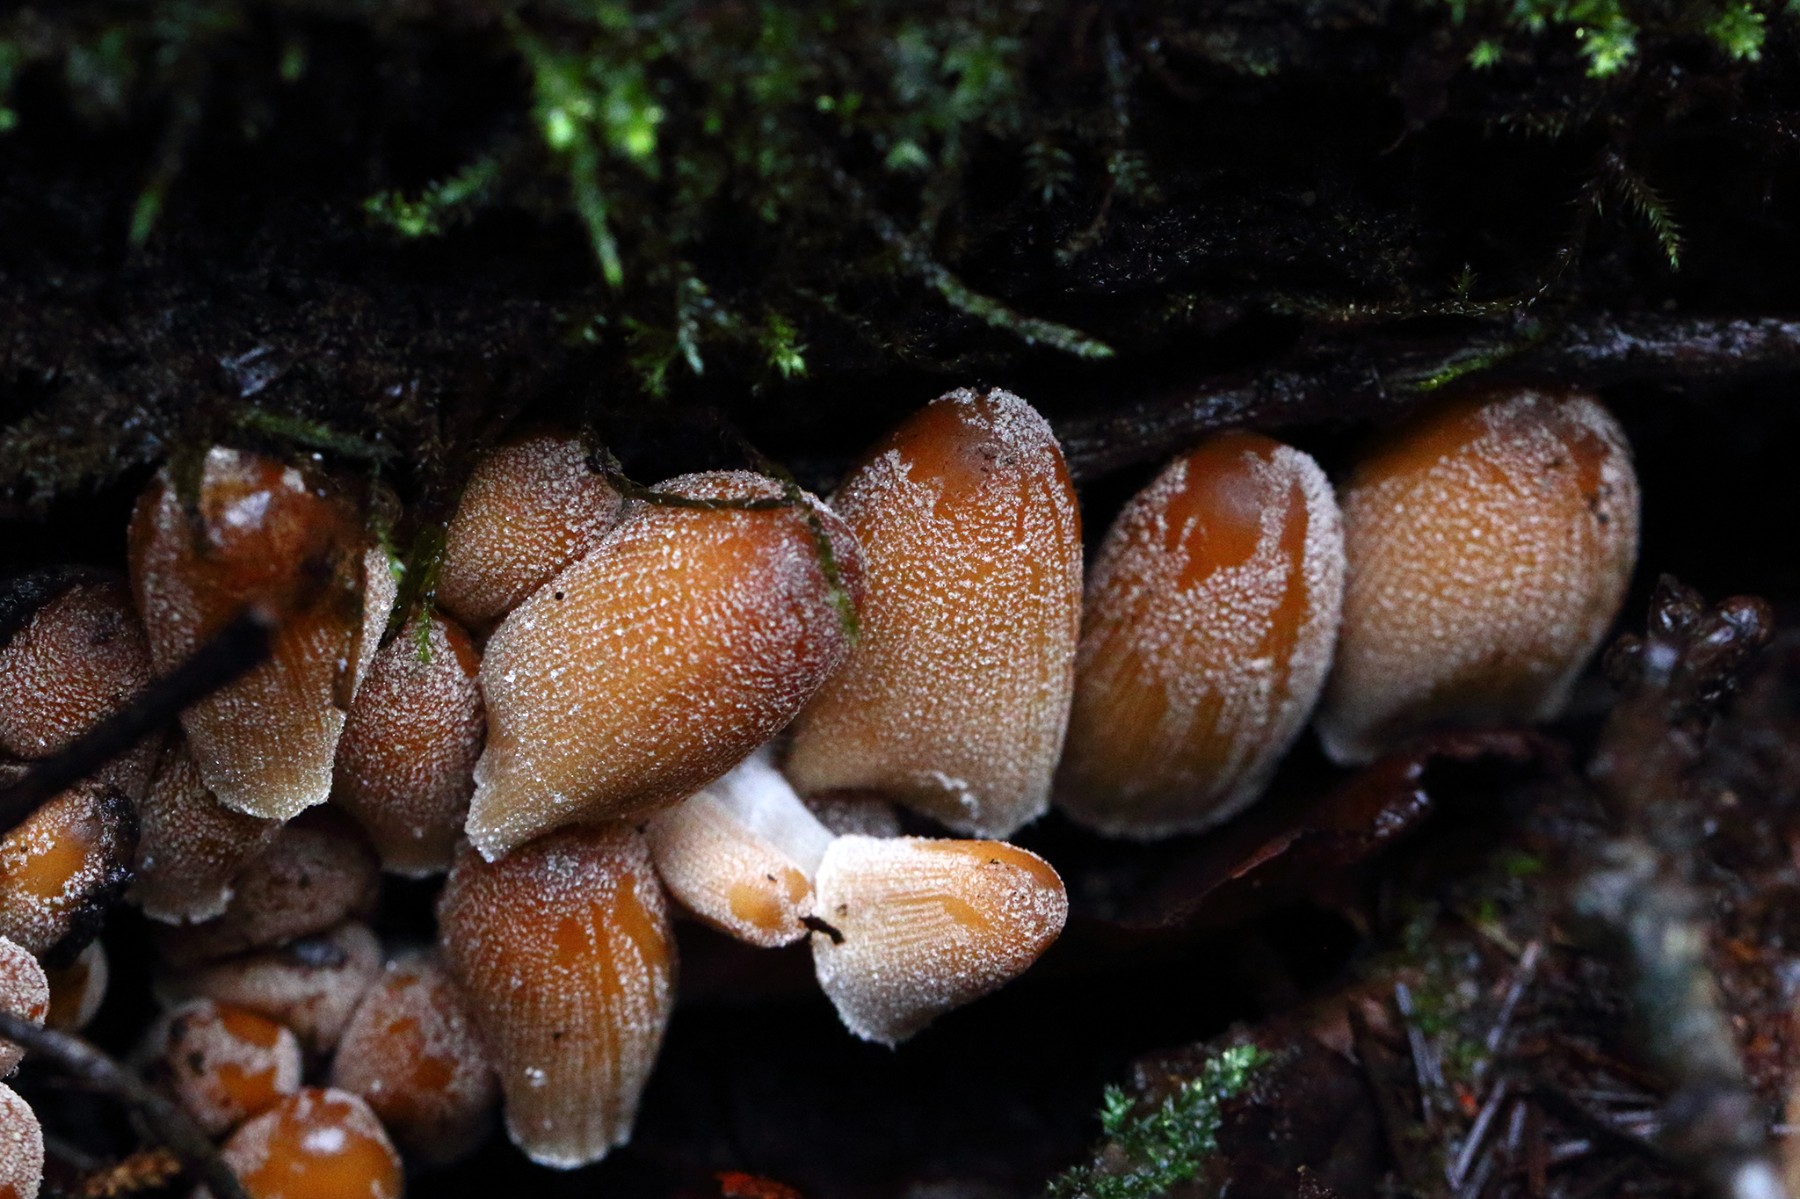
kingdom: Fungi
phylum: Basidiomycota
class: Agaricomycetes
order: Agaricales
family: Psathyrellaceae
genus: Coprinellus
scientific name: Coprinellus micaceus
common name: glimmer-blækhat
